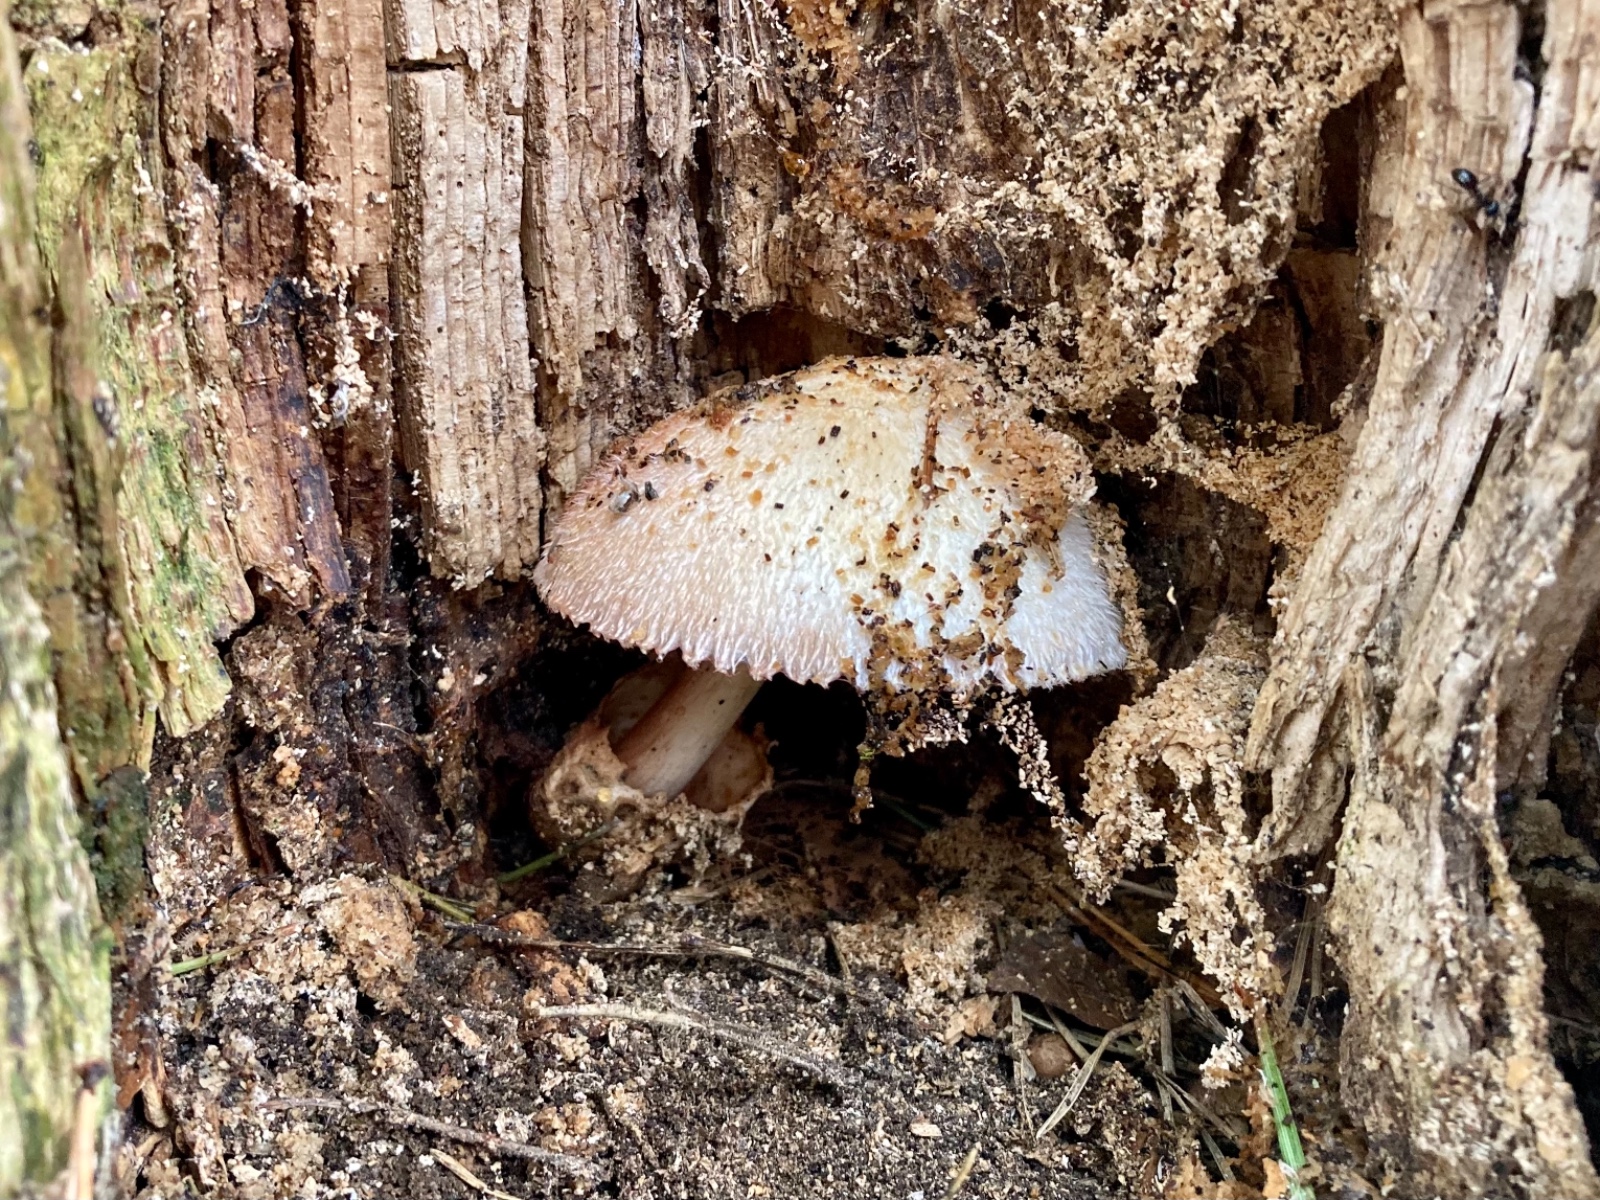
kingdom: Fungi
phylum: Basidiomycota
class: Agaricomycetes
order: Agaricales
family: Pluteaceae
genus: Volvariella
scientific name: Volvariella bombycina
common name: silkehåret posesvamp
